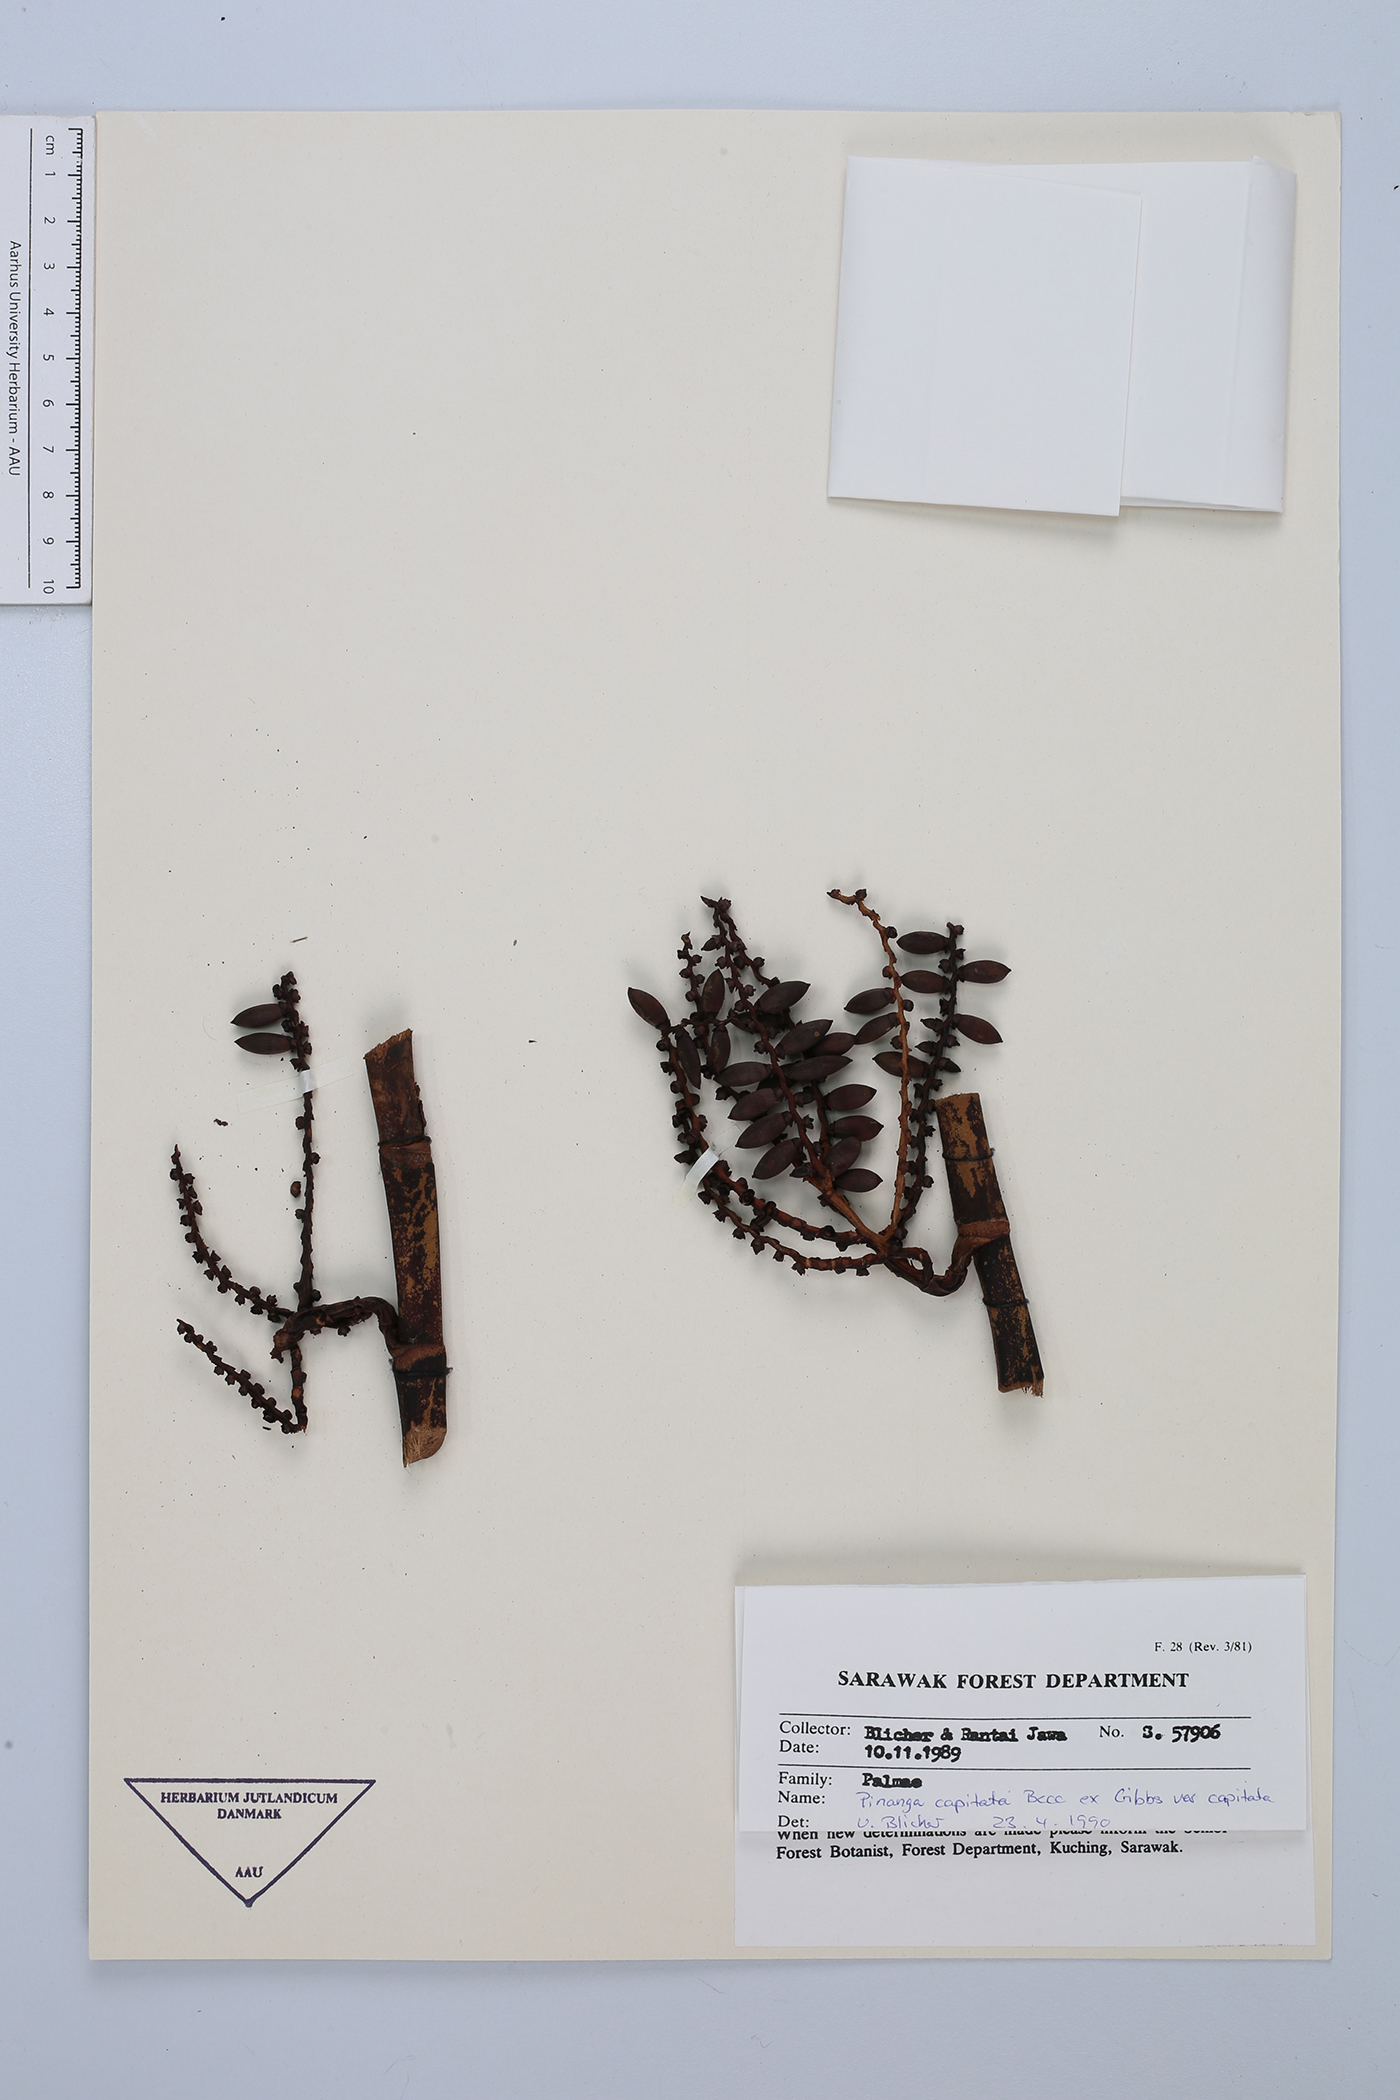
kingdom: Plantae
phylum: Tracheophyta
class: Liliopsida
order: Arecales
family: Arecaceae
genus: Pinanga
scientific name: Pinanga capitata
